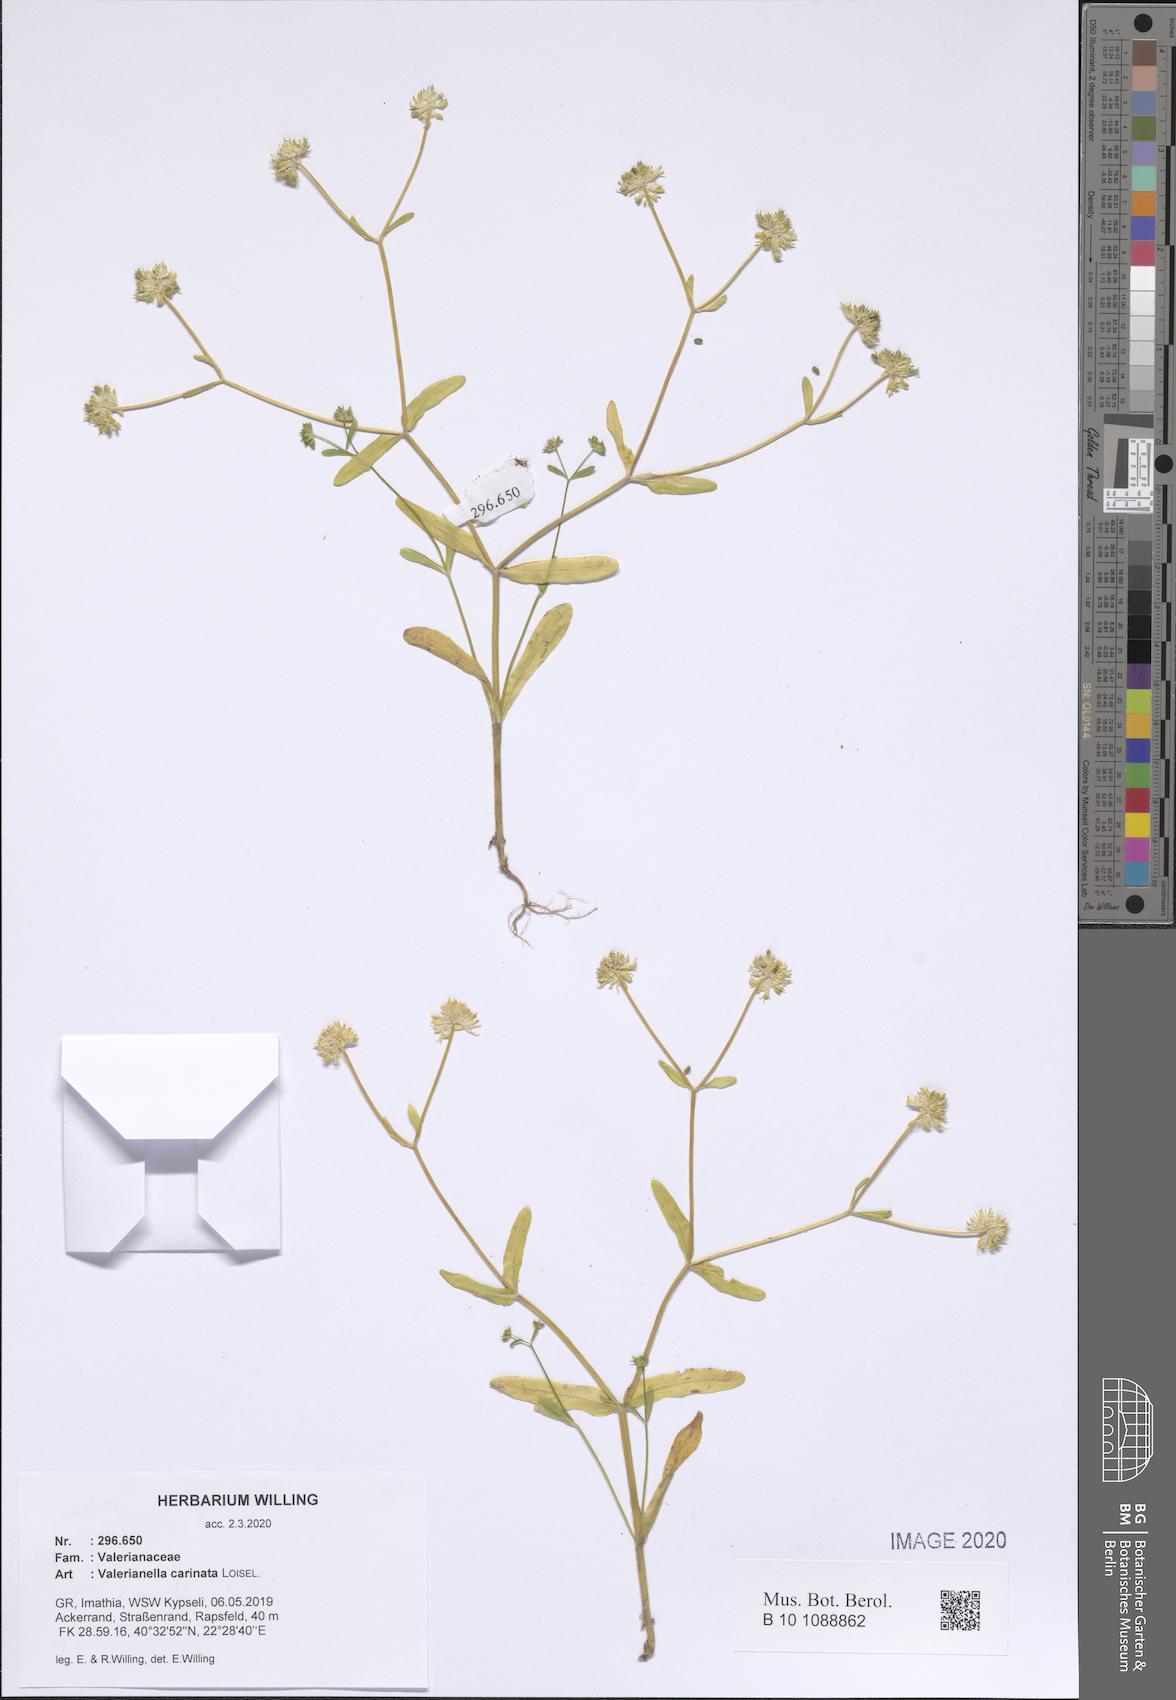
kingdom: Plantae
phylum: Tracheophyta
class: Magnoliopsida
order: Dipsacales
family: Caprifoliaceae
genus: Valerianella
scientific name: Valerianella carinata
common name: Keeled-fruited cornsalad
